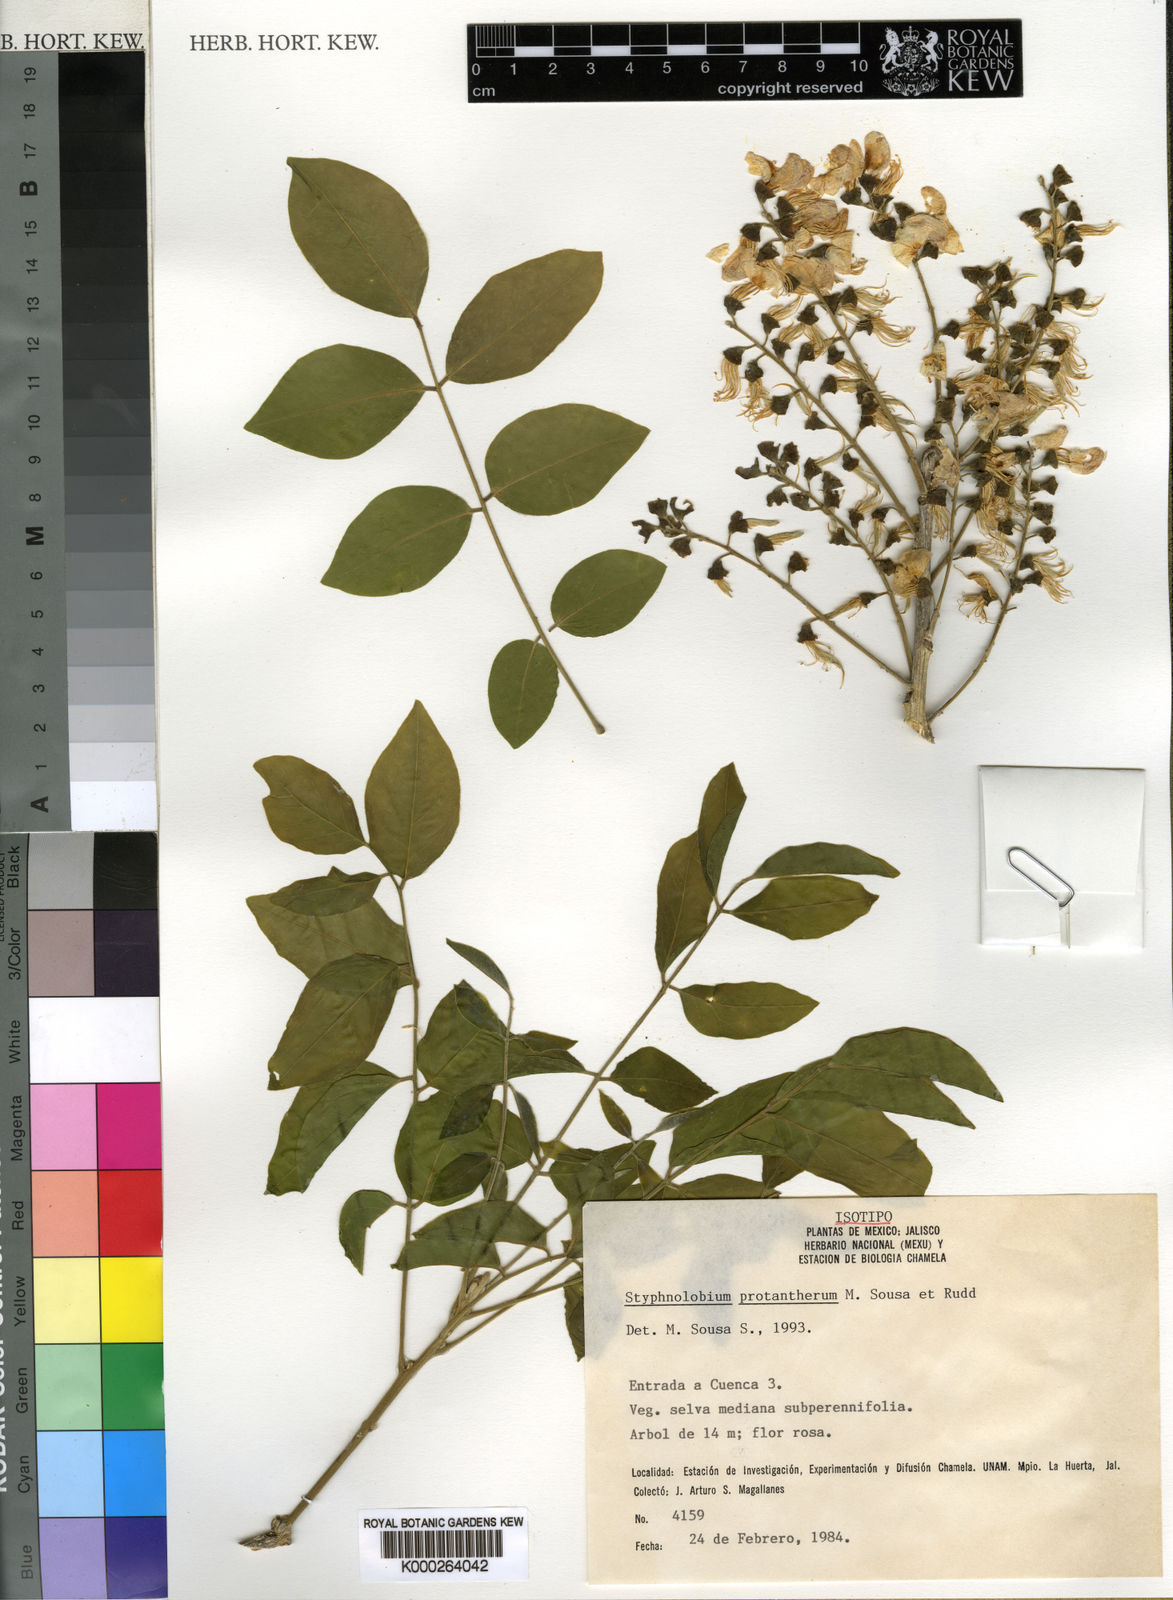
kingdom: Plantae
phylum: Tracheophyta
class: Magnoliopsida
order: Fabales
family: Fabaceae
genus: Styphnolobium
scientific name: Styphnolobium protantherum
